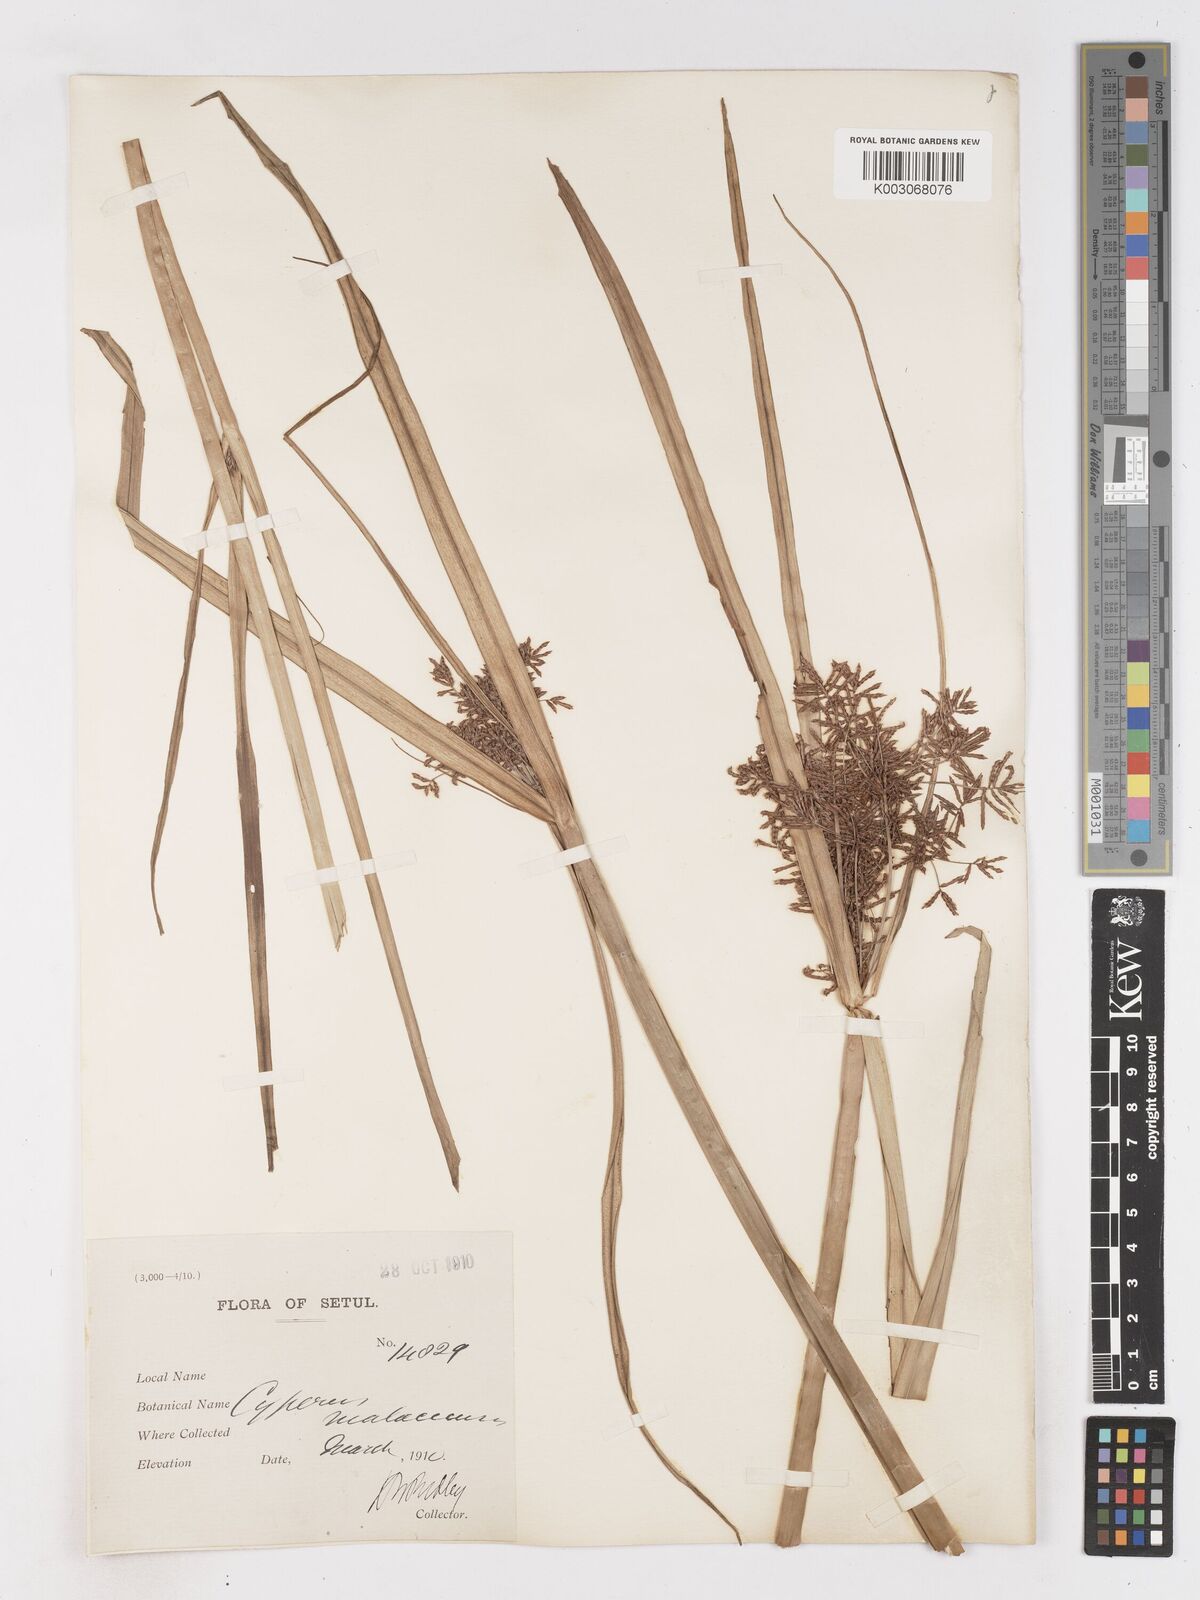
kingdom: Plantae
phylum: Tracheophyta
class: Liliopsida
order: Poales
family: Cyperaceae
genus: Cyperus
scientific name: Cyperus malaccensis
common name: Shichito matgrass
